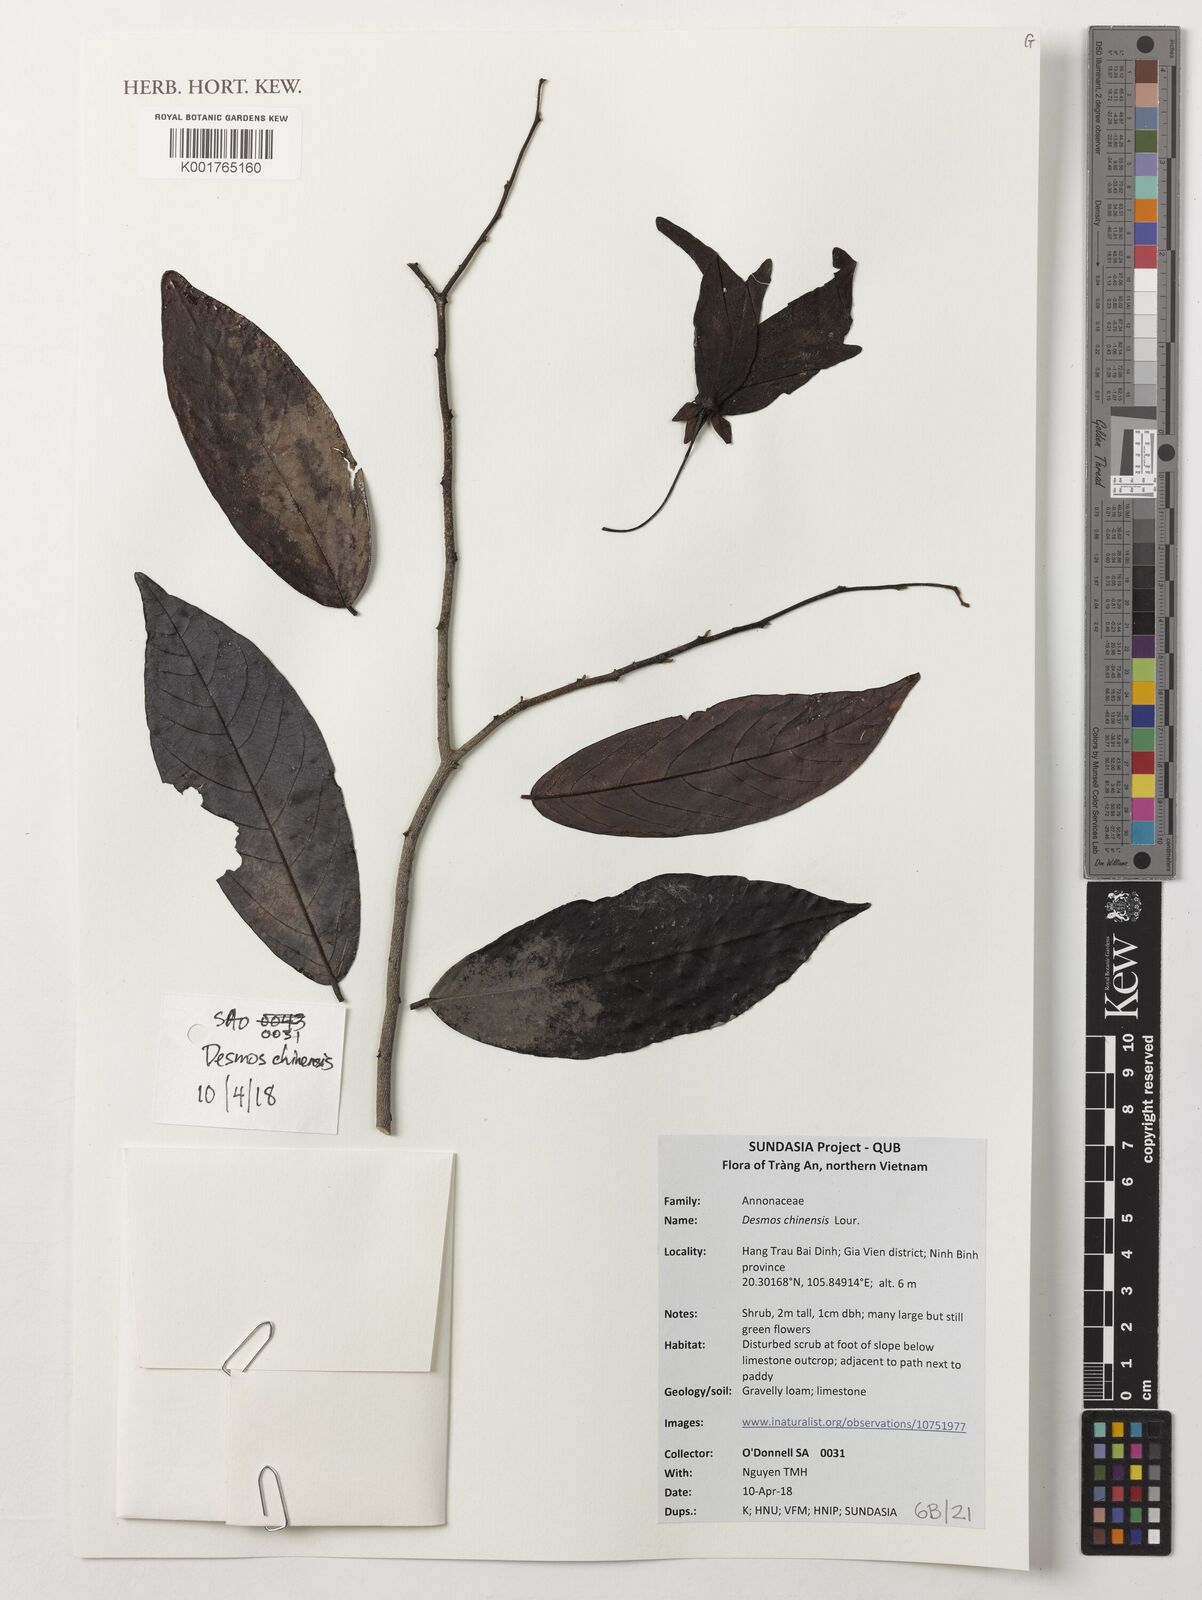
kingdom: Plantae
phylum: Tracheophyta
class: Magnoliopsida
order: Magnoliales
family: Annonaceae
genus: Desmos
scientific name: Desmos chinensis
